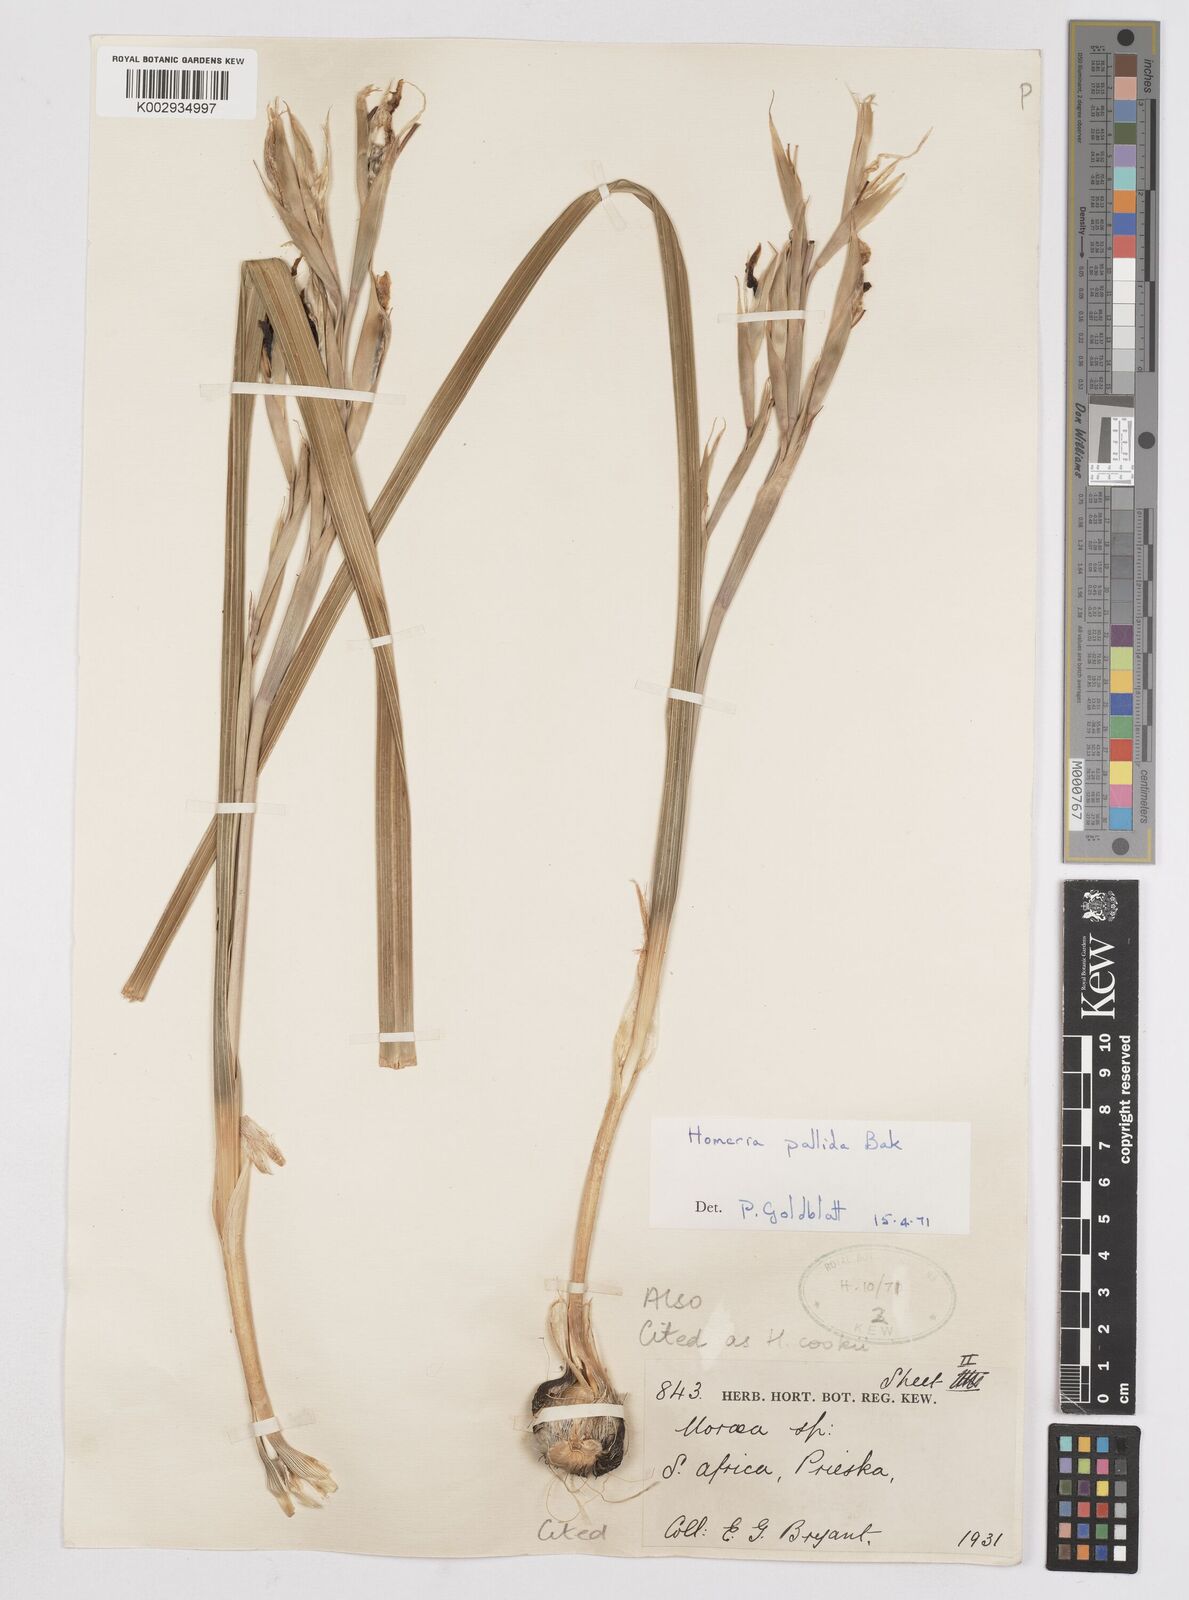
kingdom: Plantae
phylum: Tracheophyta
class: Liliopsida
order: Asparagales
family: Iridaceae
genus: Moraea
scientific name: Moraea pallida
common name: Yellow tulp
